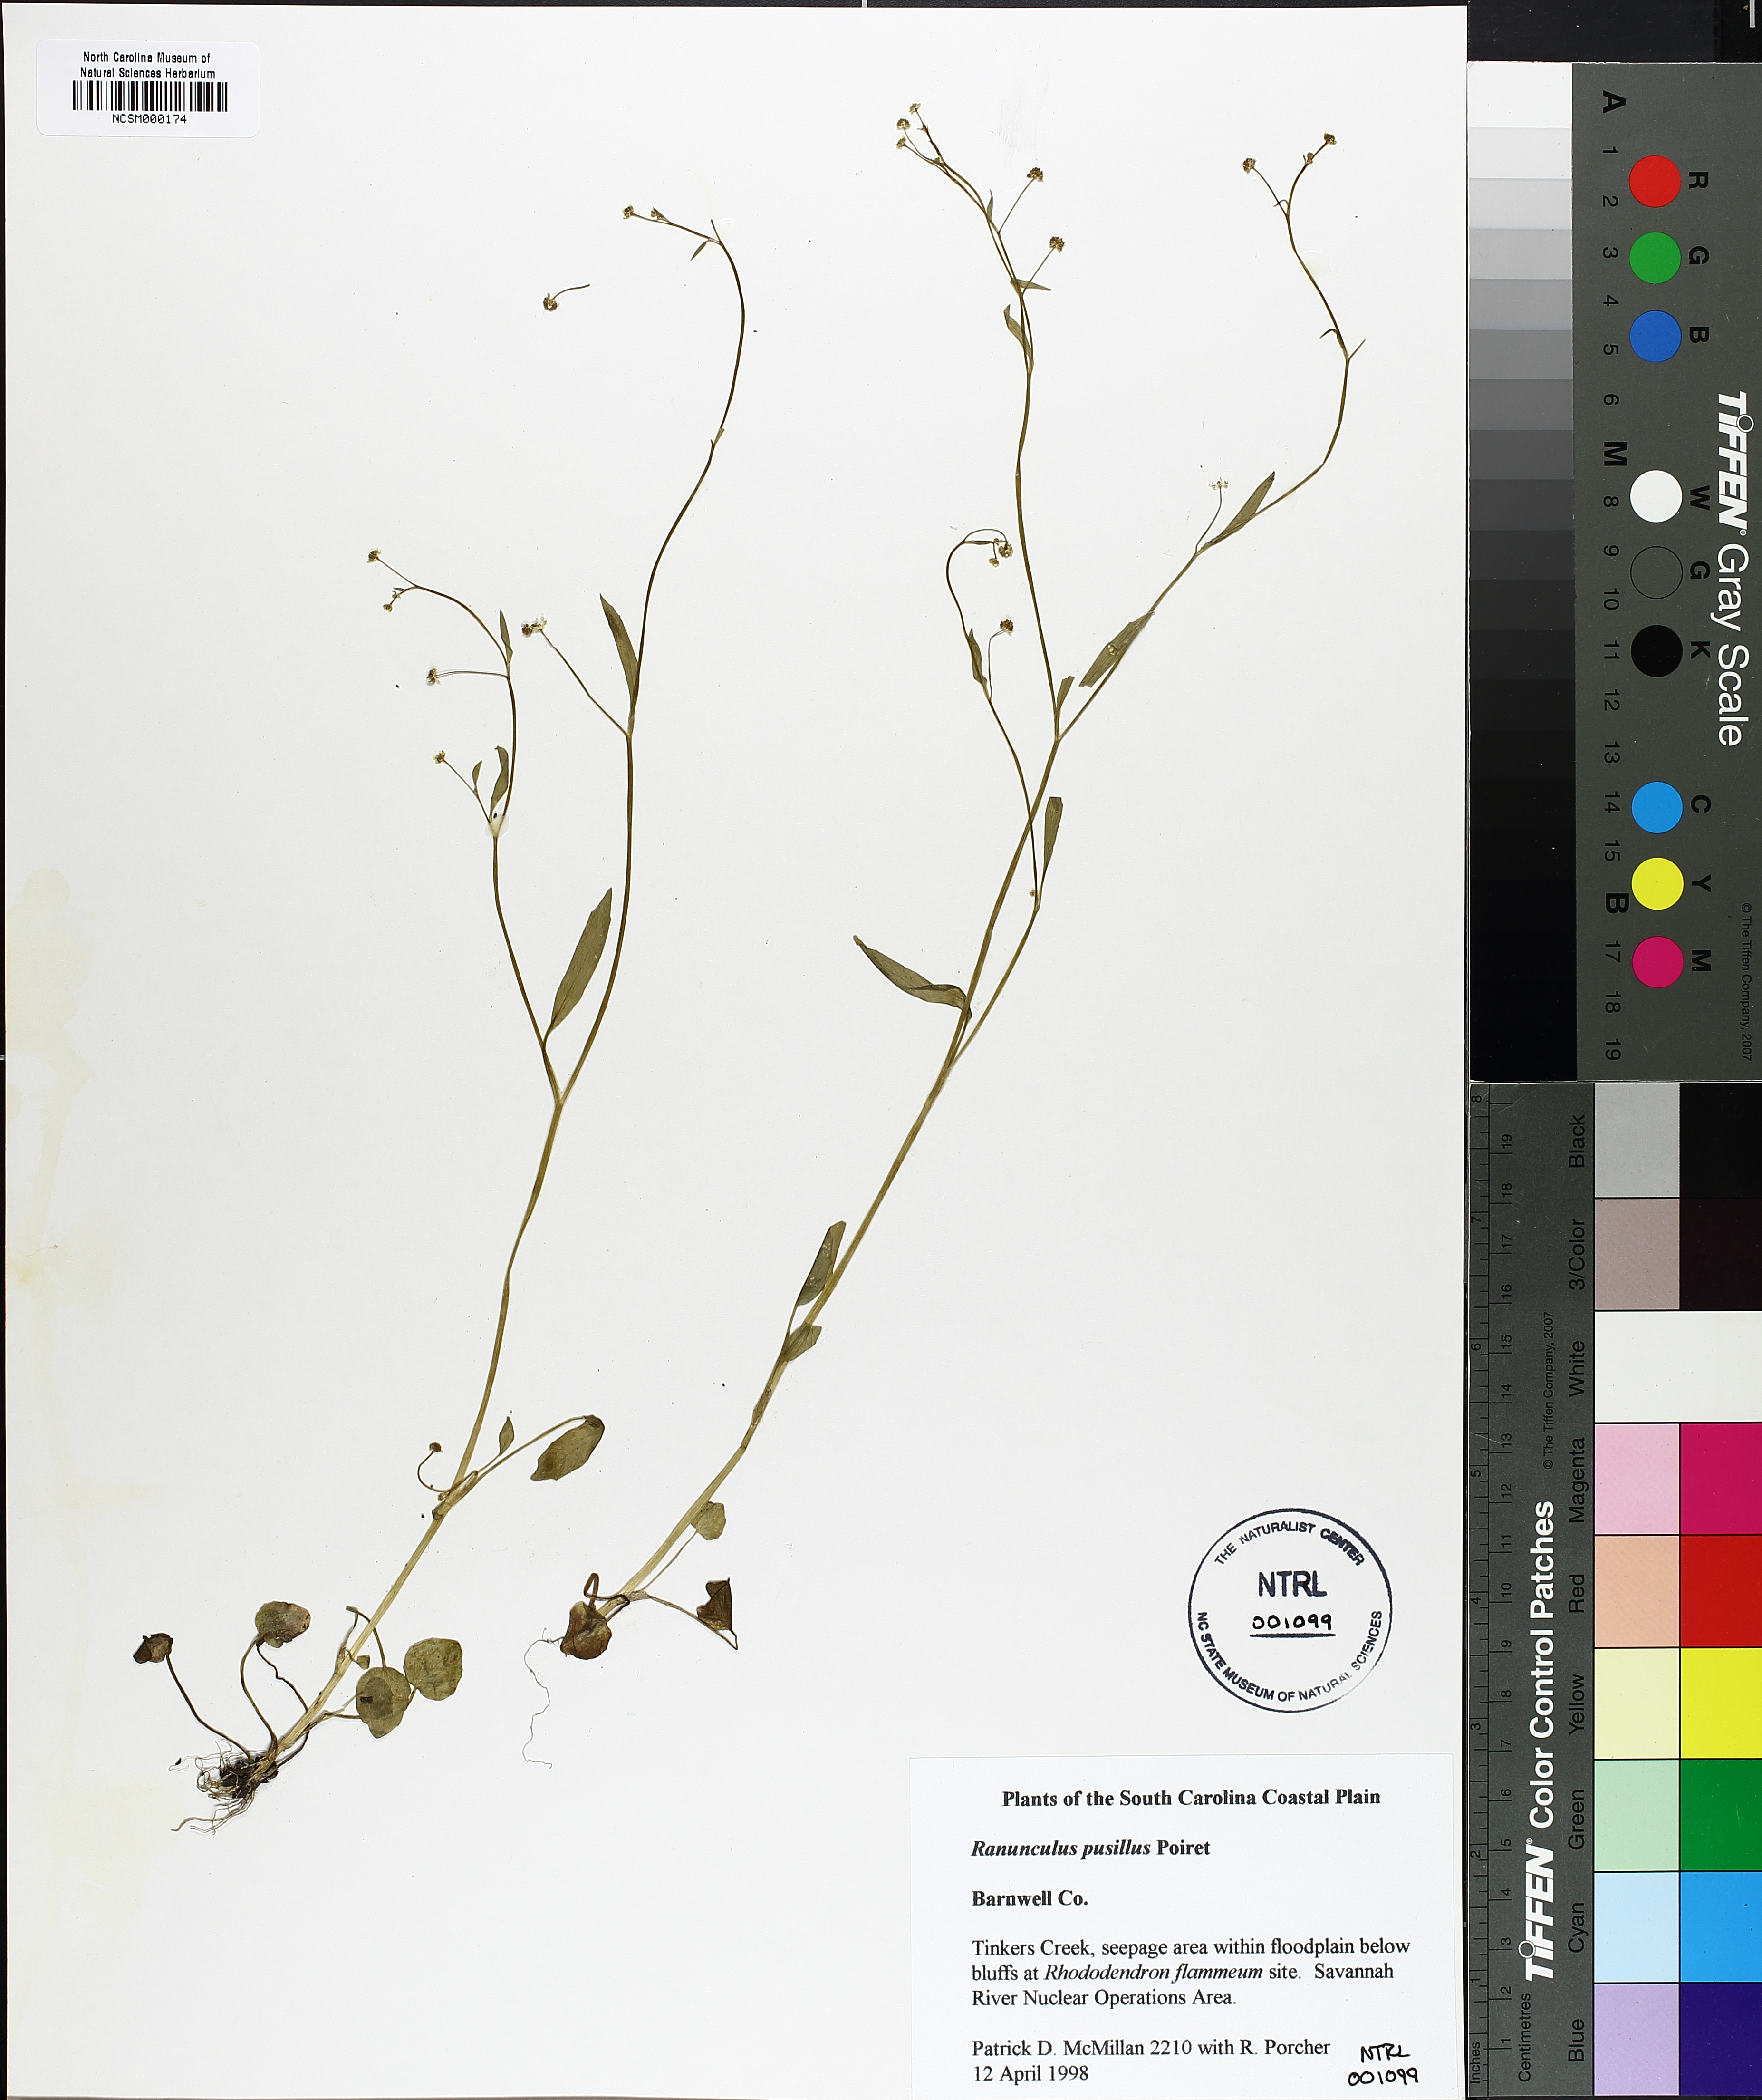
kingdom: Plantae
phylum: Tracheophyta
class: Magnoliopsida
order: Ranunculales
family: Ranunculaceae
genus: Ranunculus
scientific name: Ranunculus pusillus
